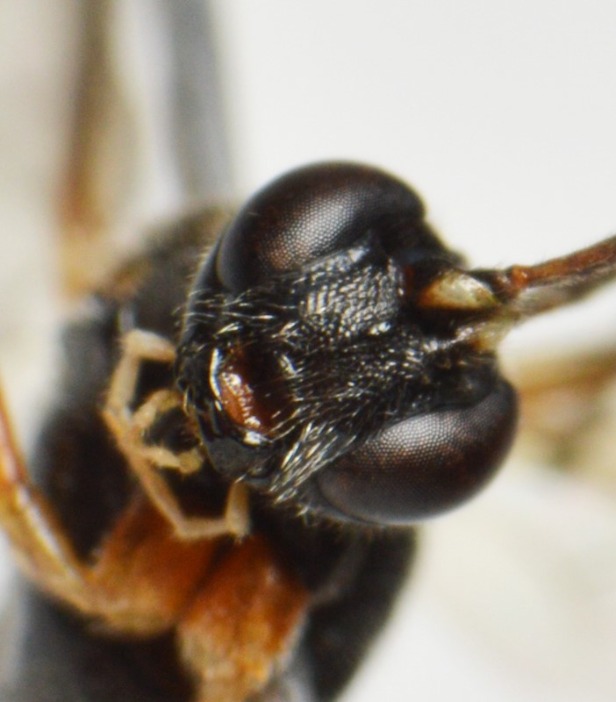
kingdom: Animalia
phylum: Arthropoda
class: Insecta
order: Hymenoptera
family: Ichneumonidae
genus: Pimpla
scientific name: Pimpla flavicoxis
